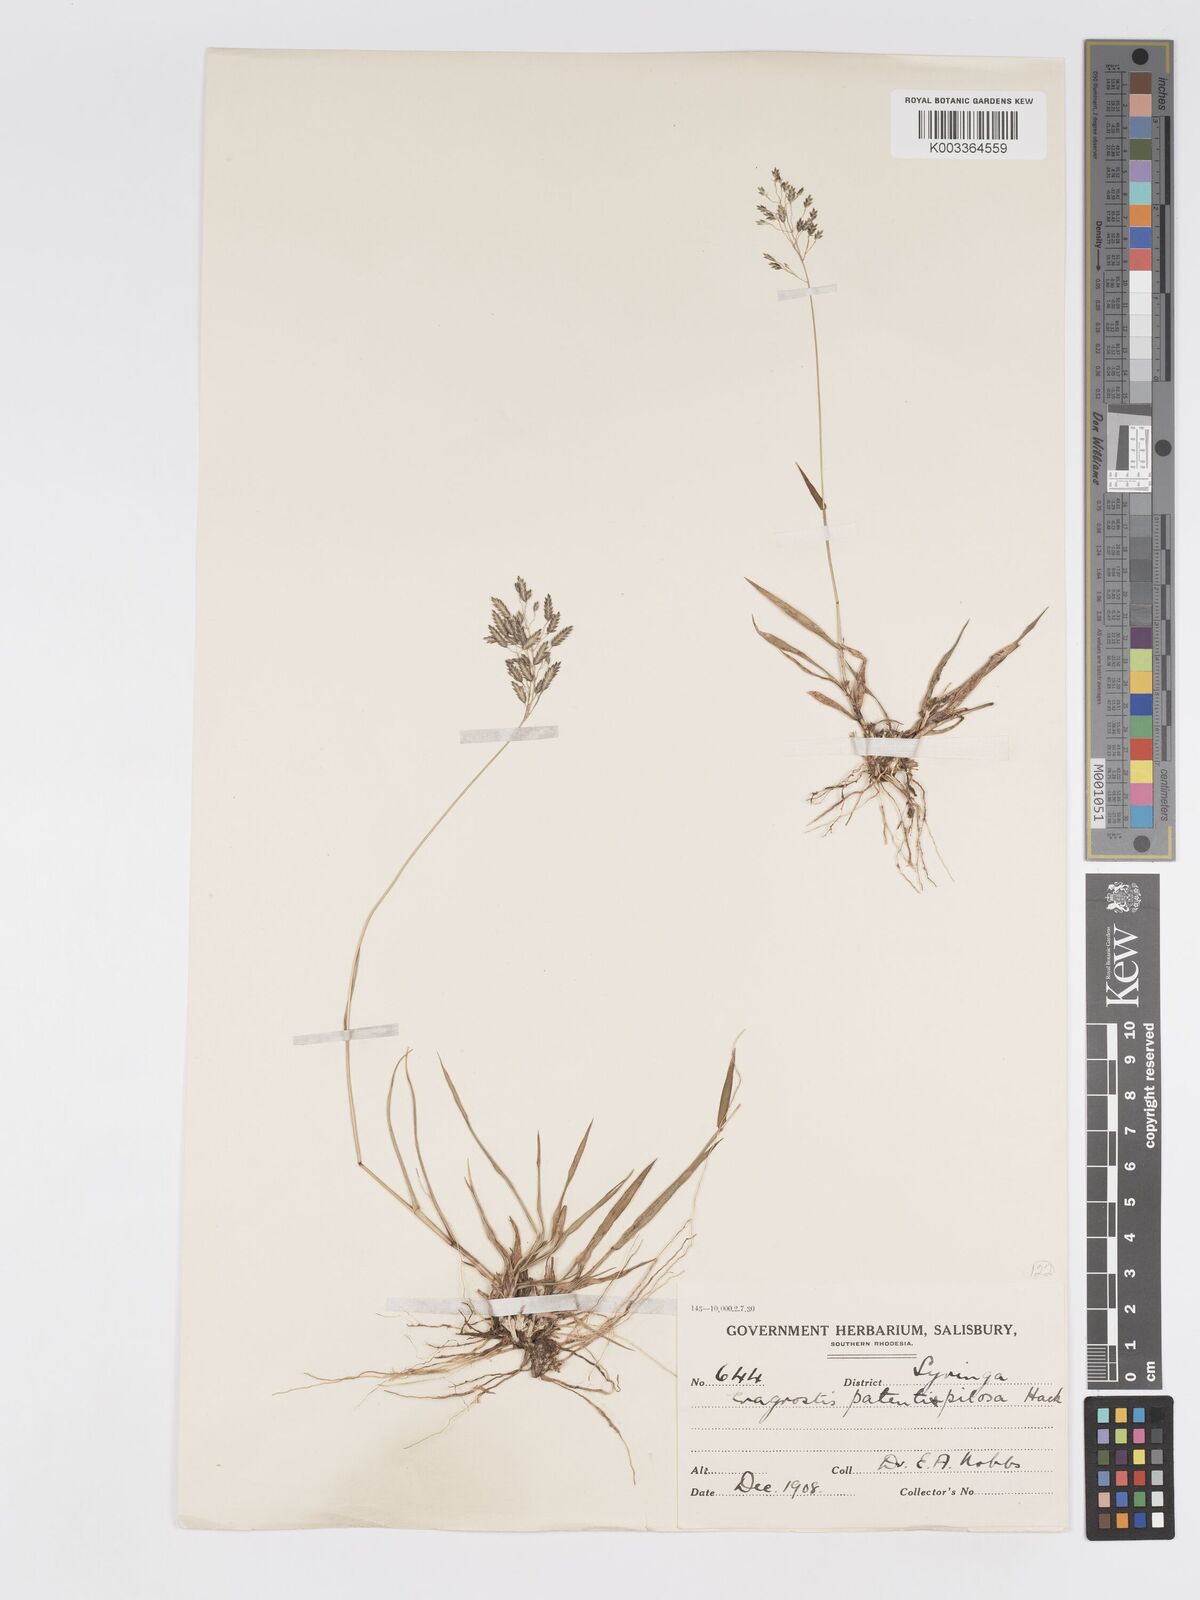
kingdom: Plantae
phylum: Tracheophyta
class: Liliopsida
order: Poales
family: Poaceae
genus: Eragrostis
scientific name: Eragrostis patentipilosa
